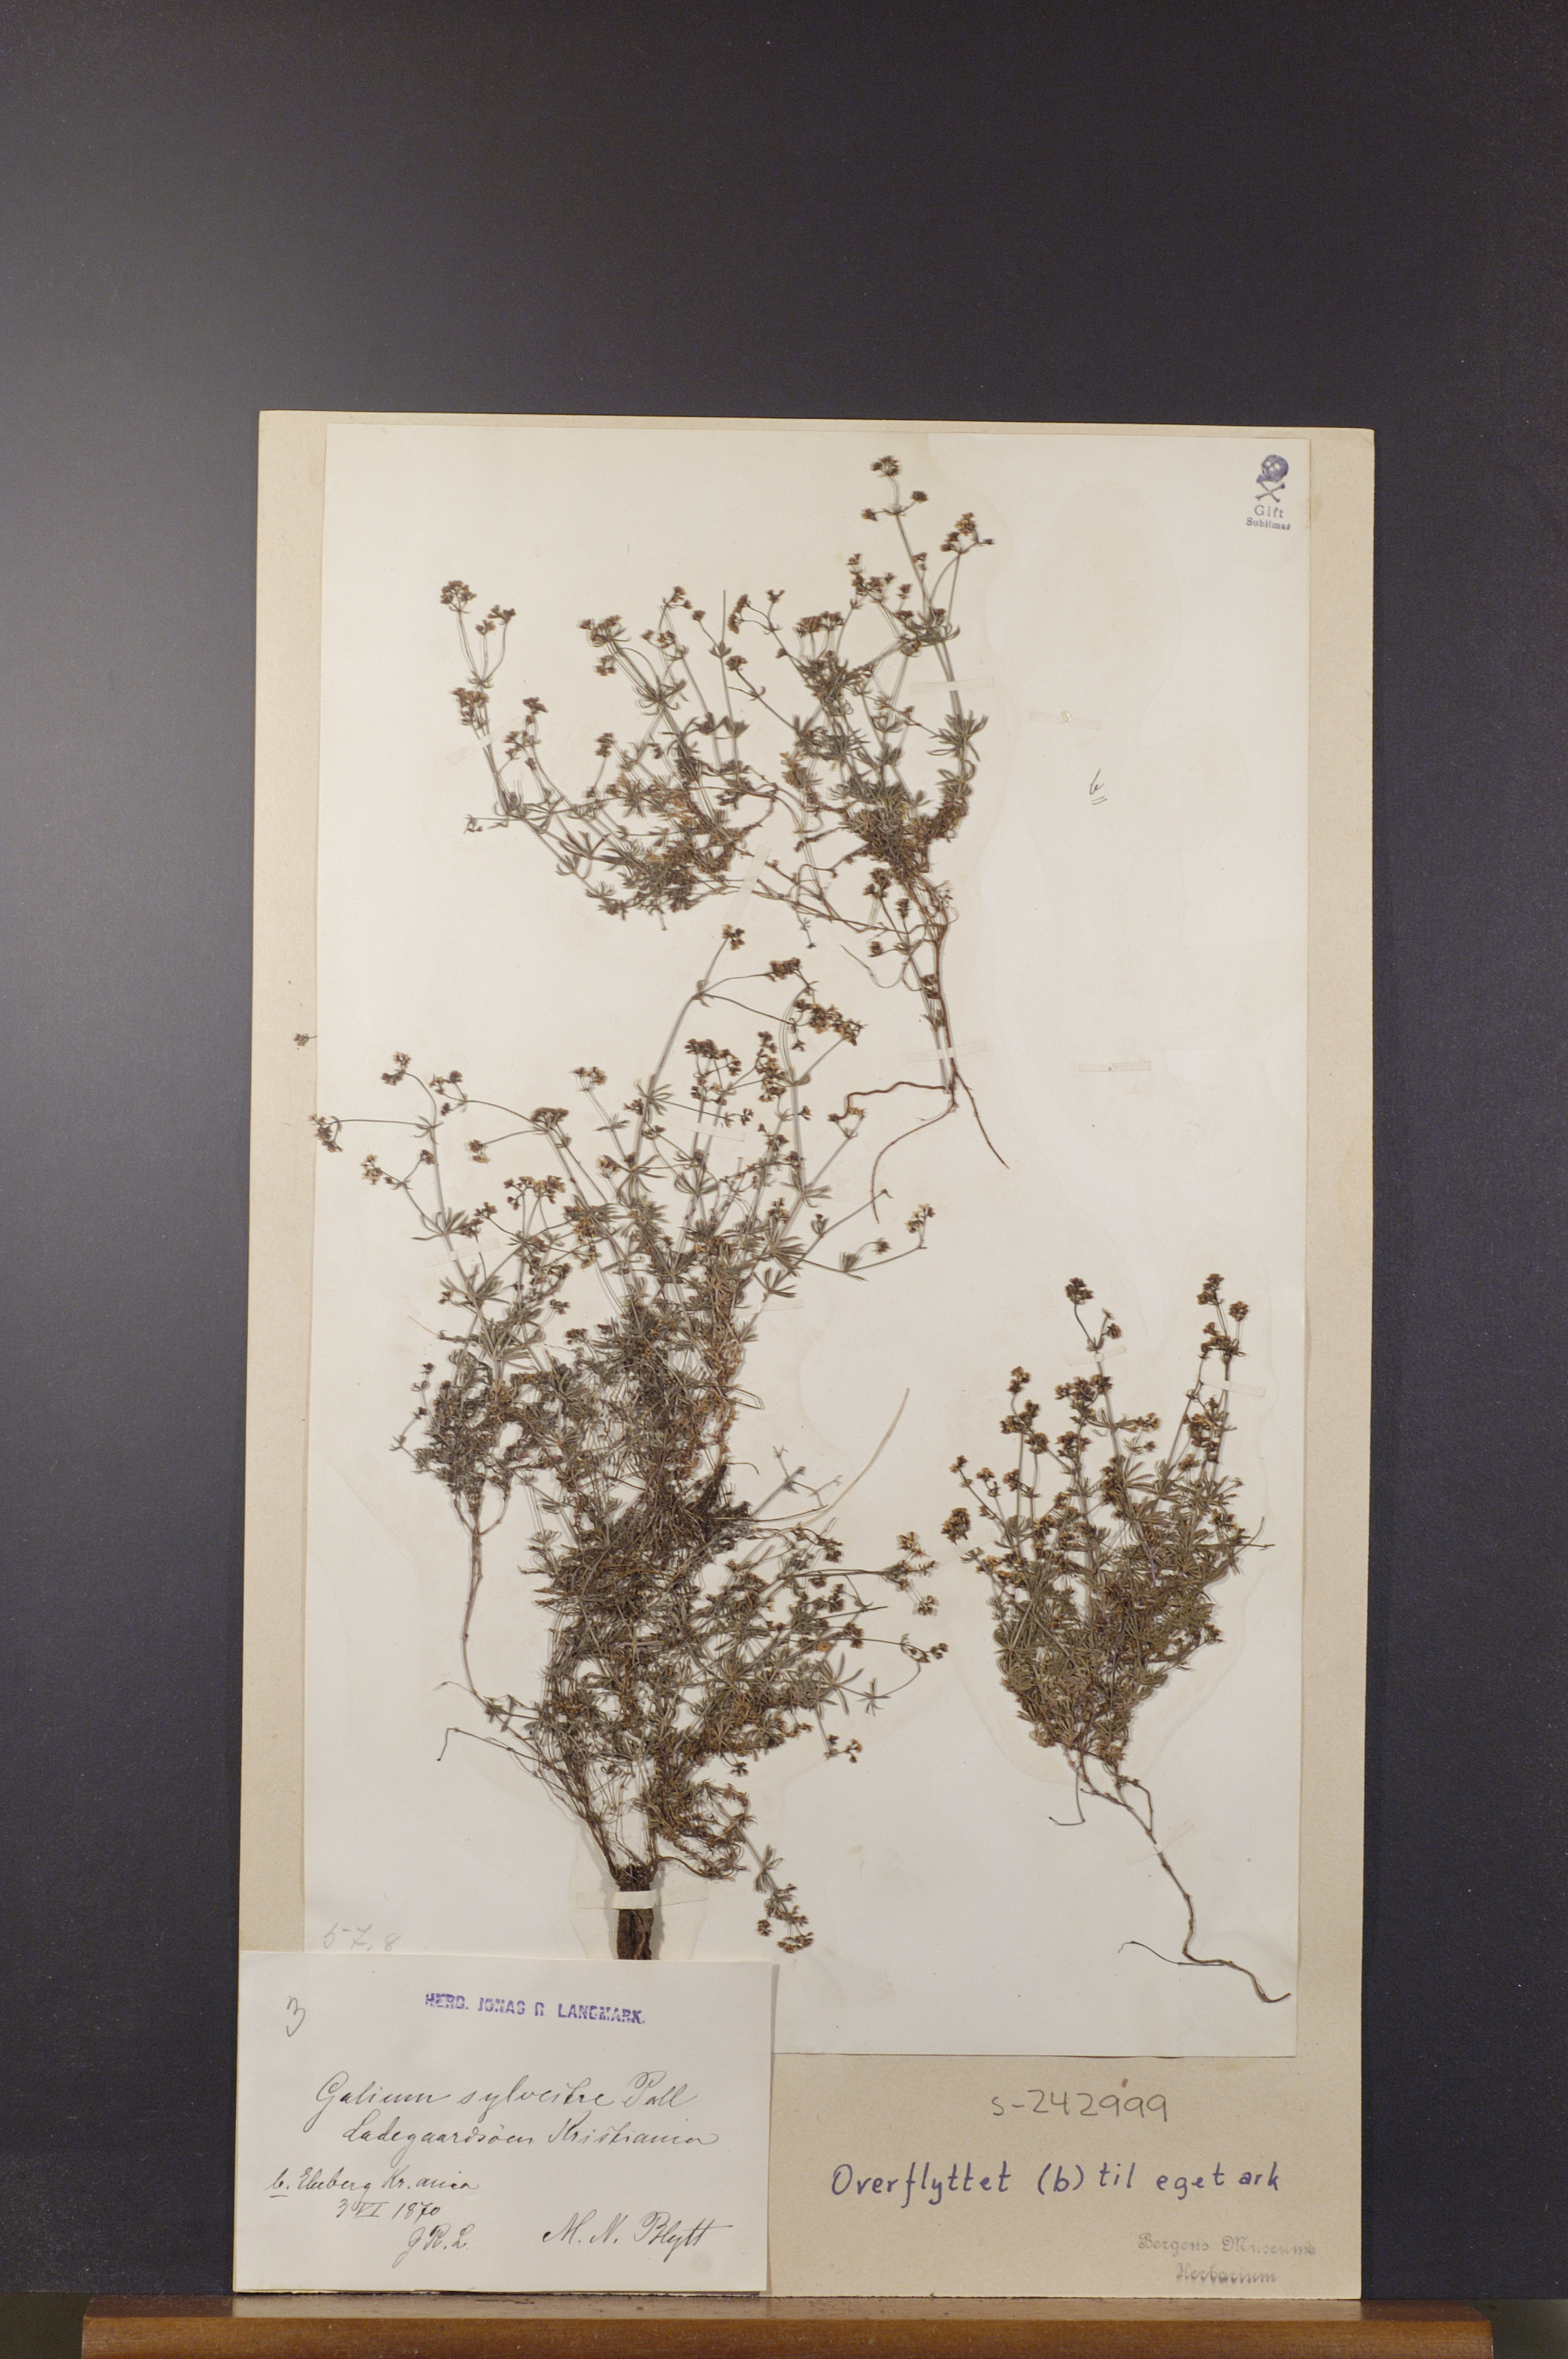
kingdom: Plantae
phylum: Tracheophyta
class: Magnoliopsida
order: Gentianales
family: Rubiaceae
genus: Galium
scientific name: Galium pumilum
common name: Slender bedstraw
